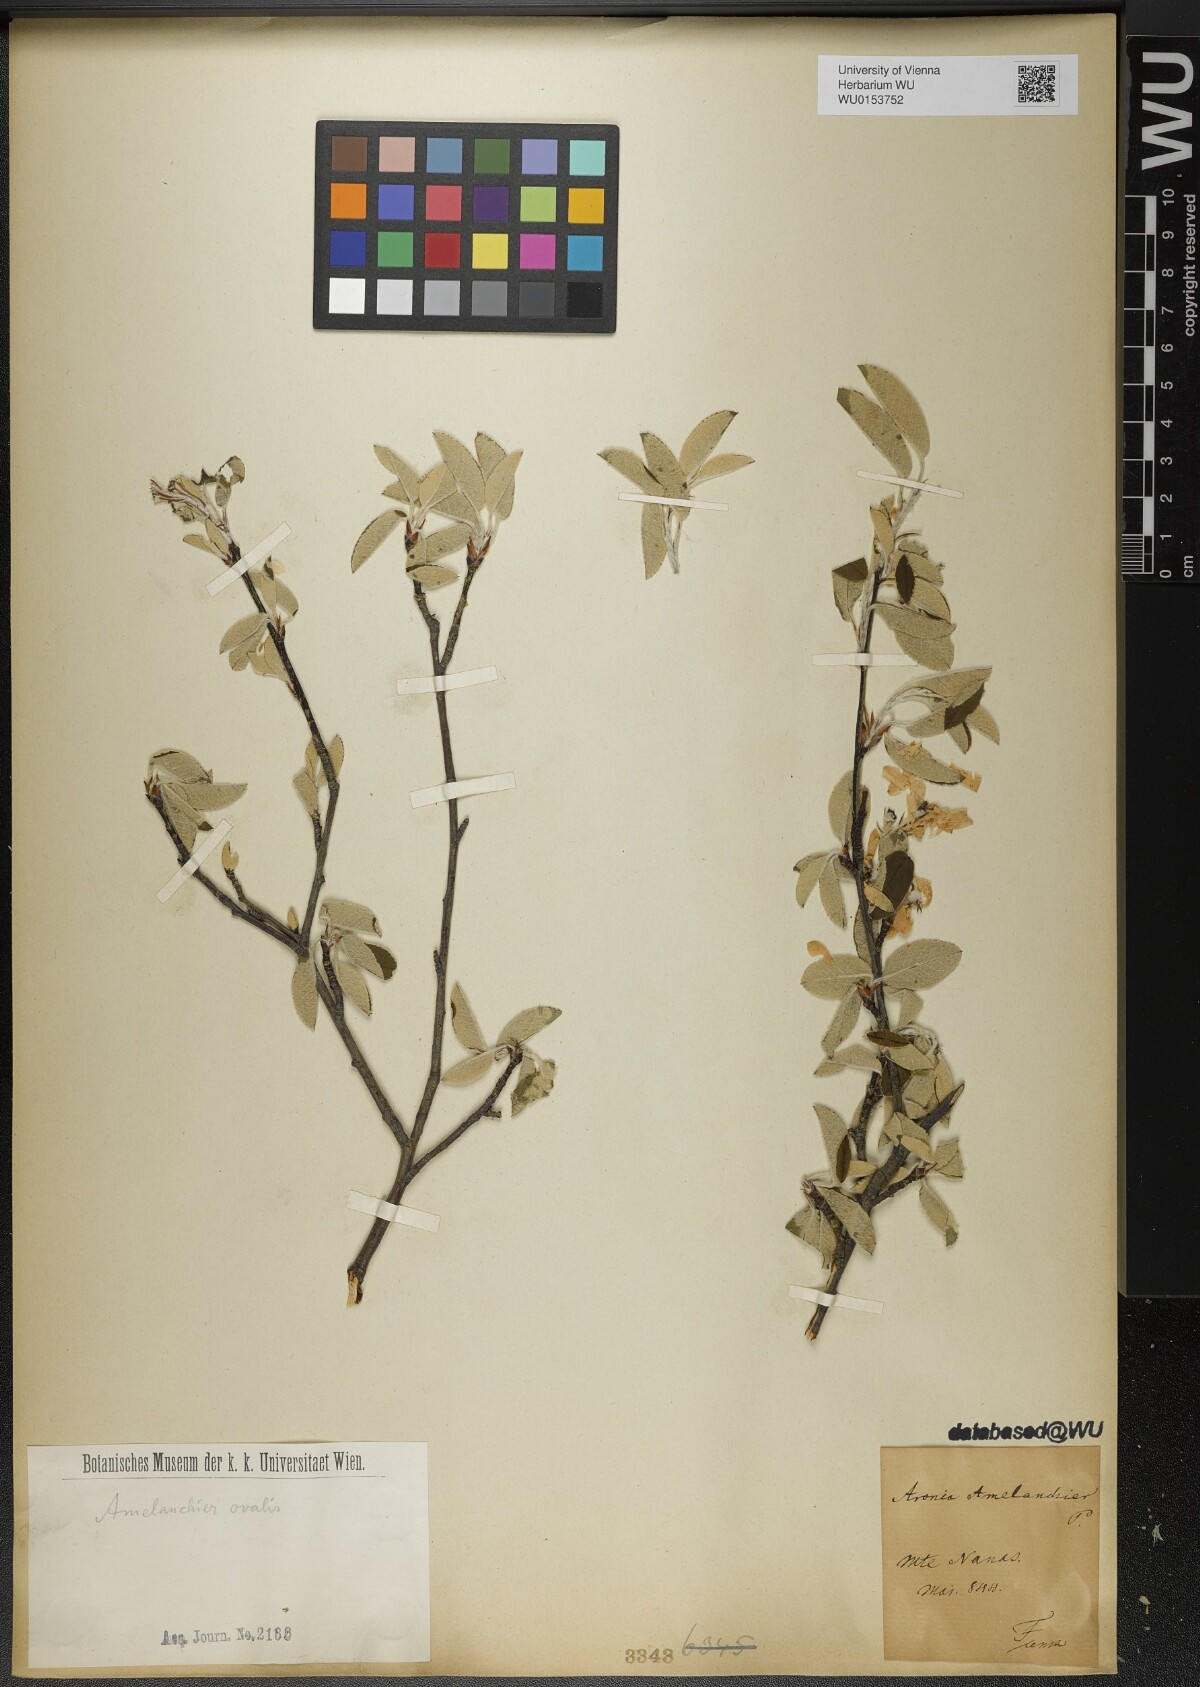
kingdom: Plantae
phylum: Tracheophyta
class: Magnoliopsida
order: Rosales
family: Rosaceae
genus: Amelanchier
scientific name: Amelanchier ovalis
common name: Serviceberry
